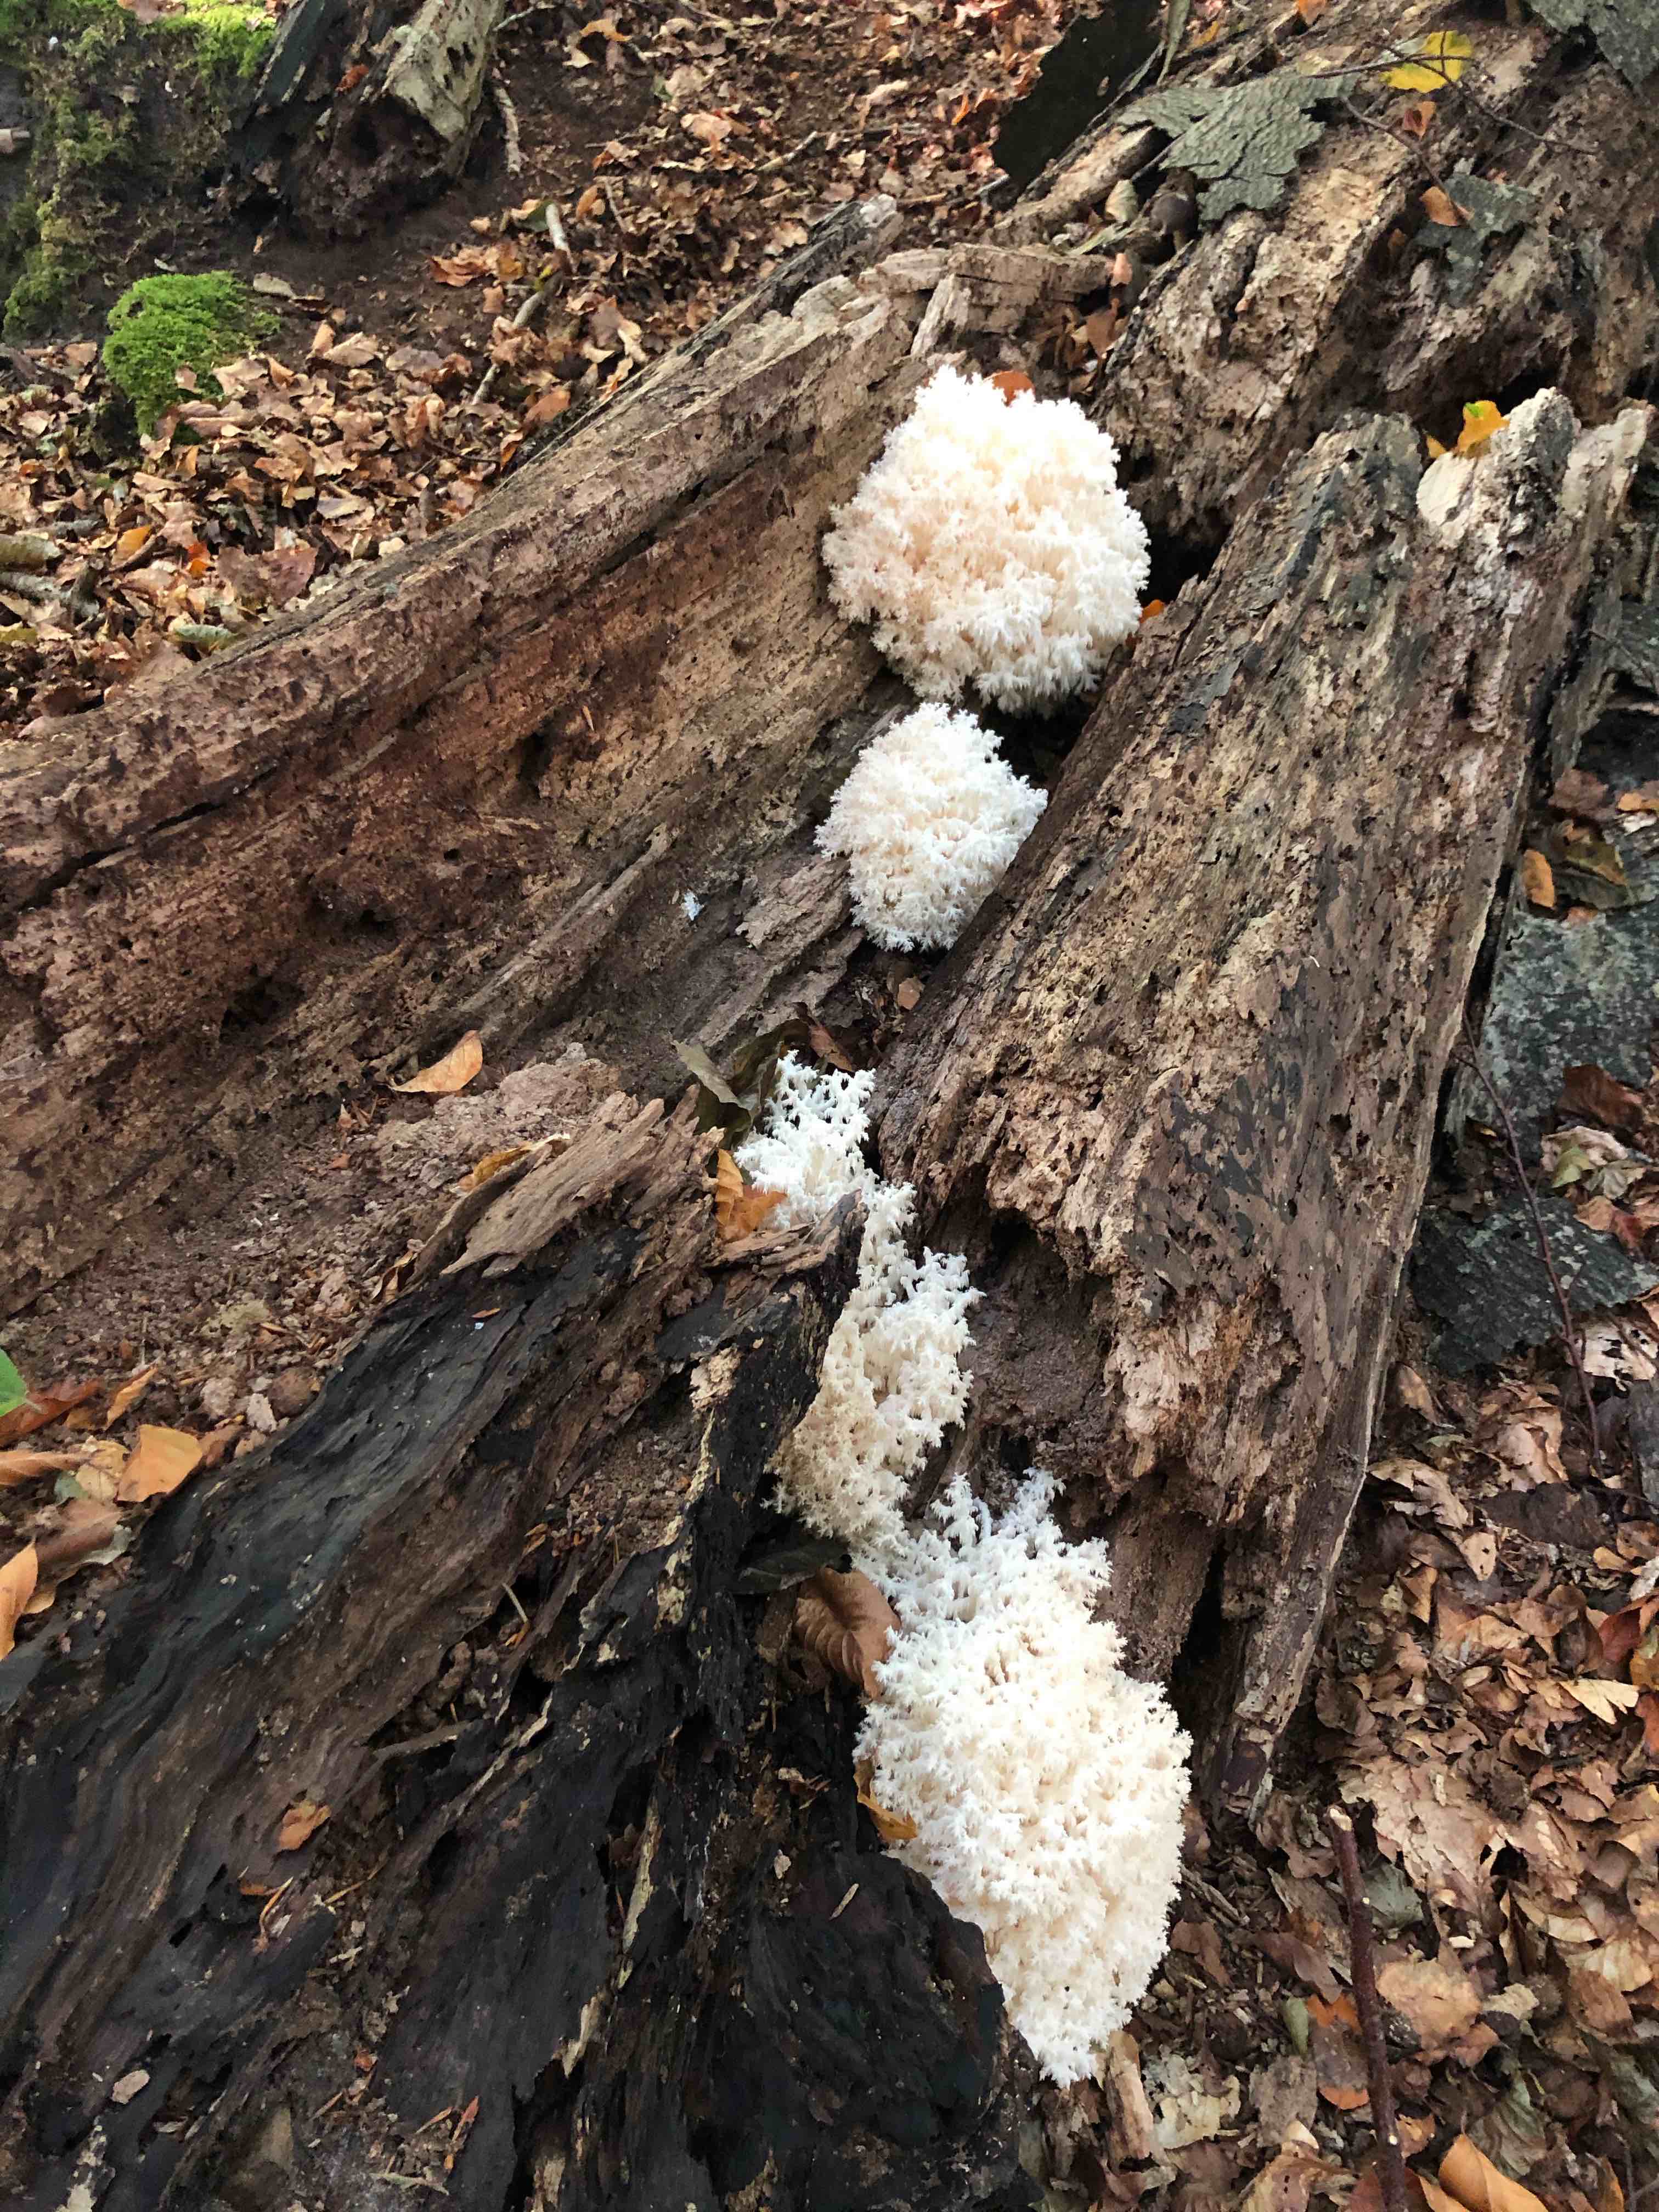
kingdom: Fungi
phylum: Basidiomycota
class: Agaricomycetes
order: Russulales
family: Hericiaceae
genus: Hericium
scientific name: Hericium coralloides
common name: koralpigsvamp
